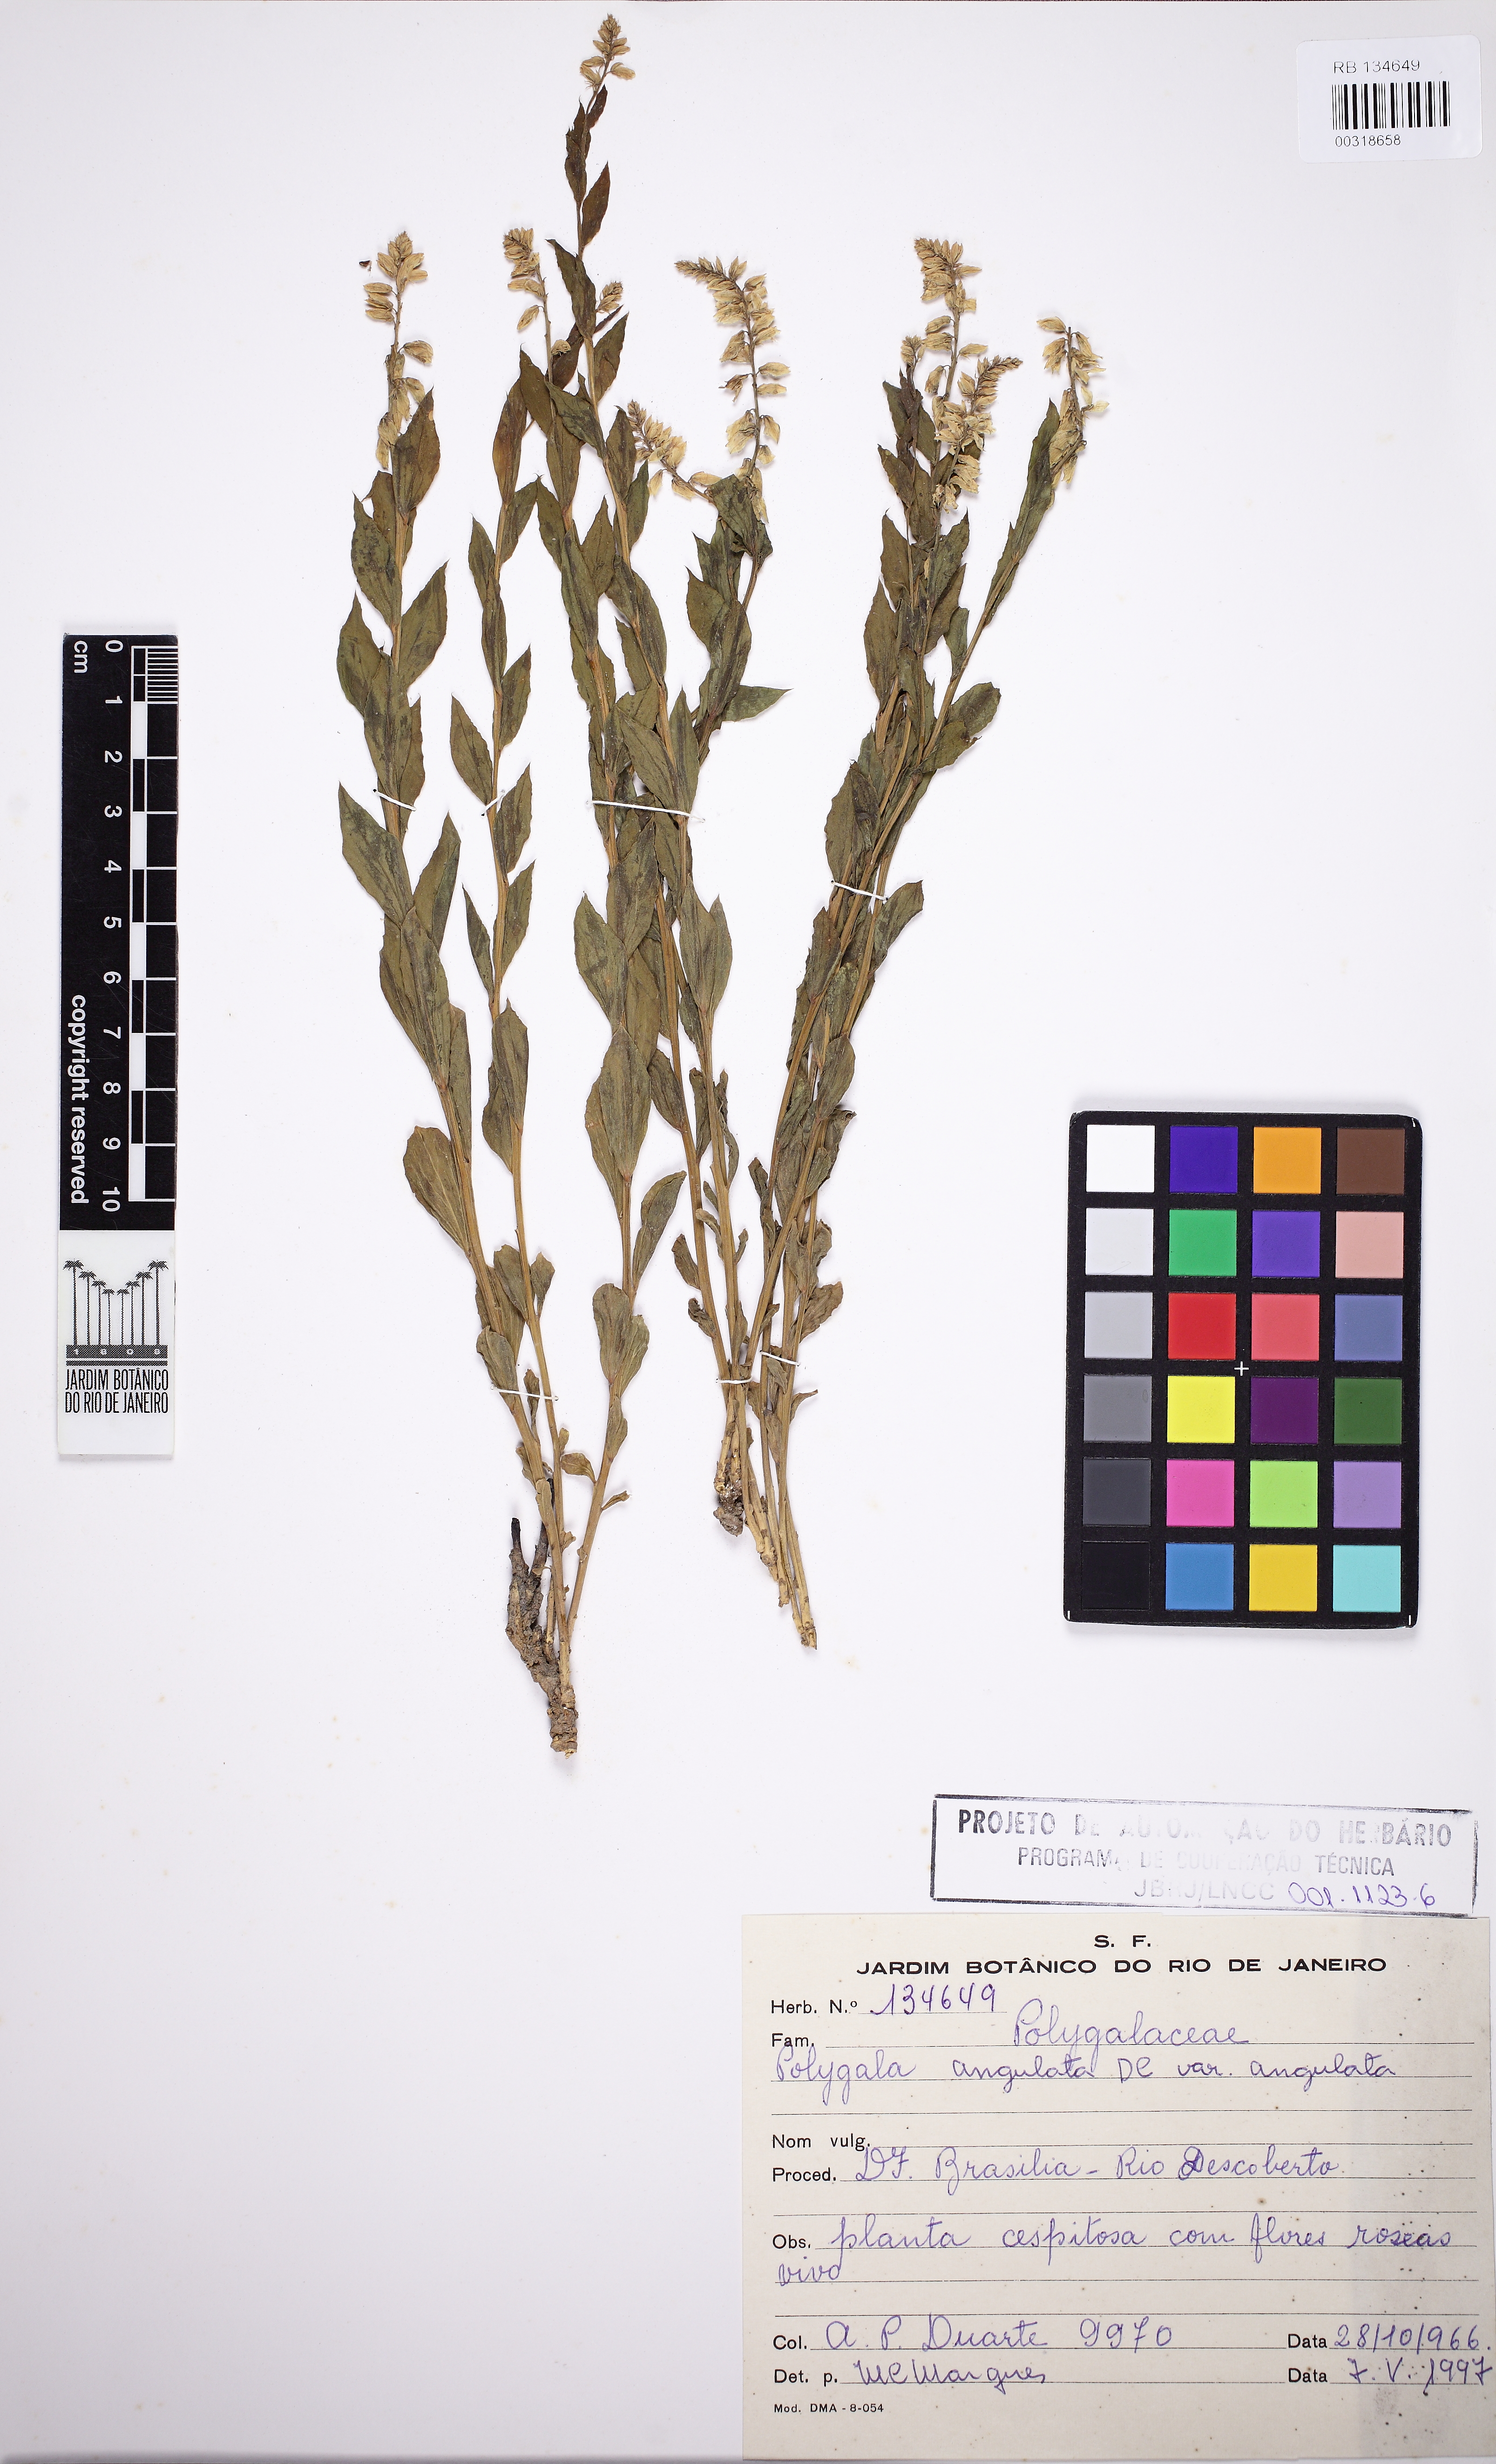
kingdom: Plantae
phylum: Tracheophyta
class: Magnoliopsida
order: Fabales
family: Polygalaceae
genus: Polygala
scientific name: Polygala poaya
